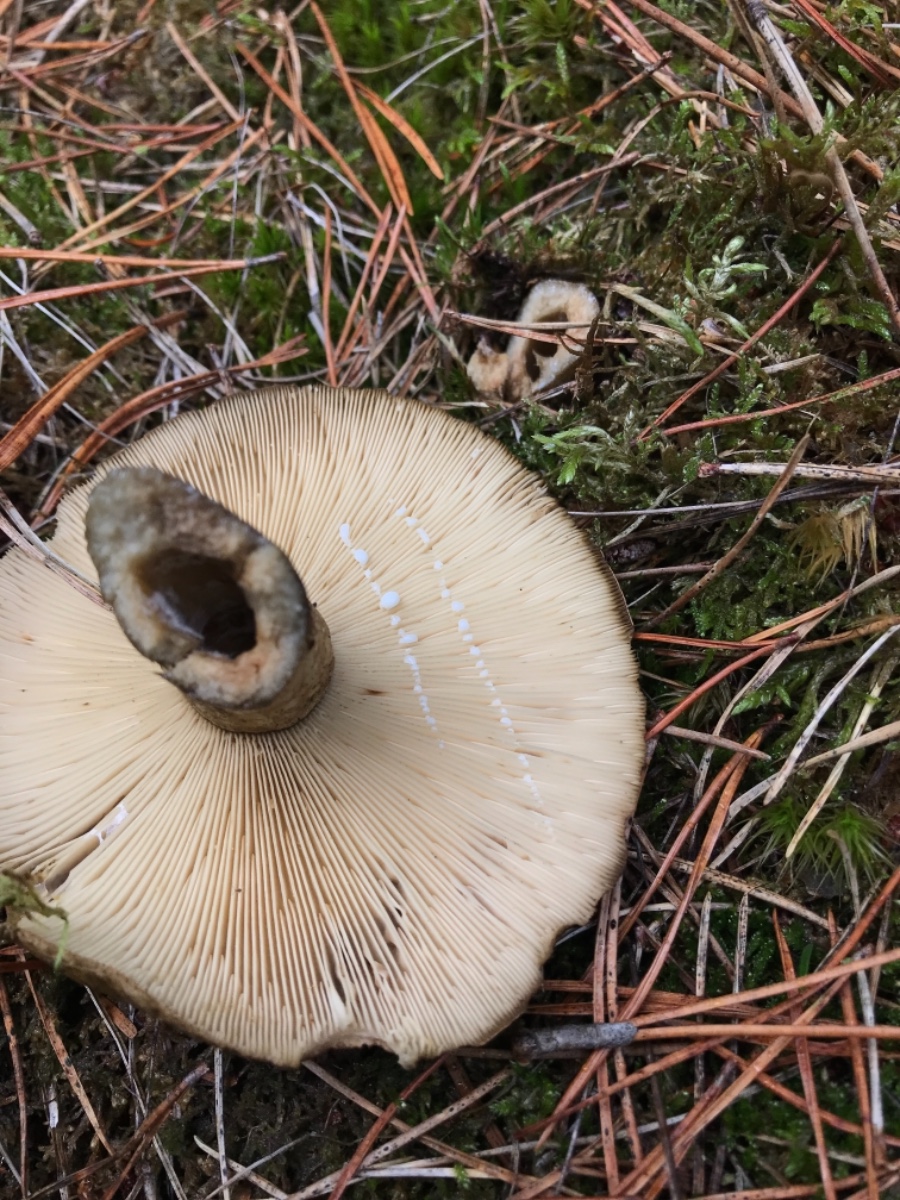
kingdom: Fungi
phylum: Basidiomycota
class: Agaricomycetes
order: Russulales
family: Russulaceae
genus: Lactarius
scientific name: Lactarius necator
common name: manddraber-mælkehat
